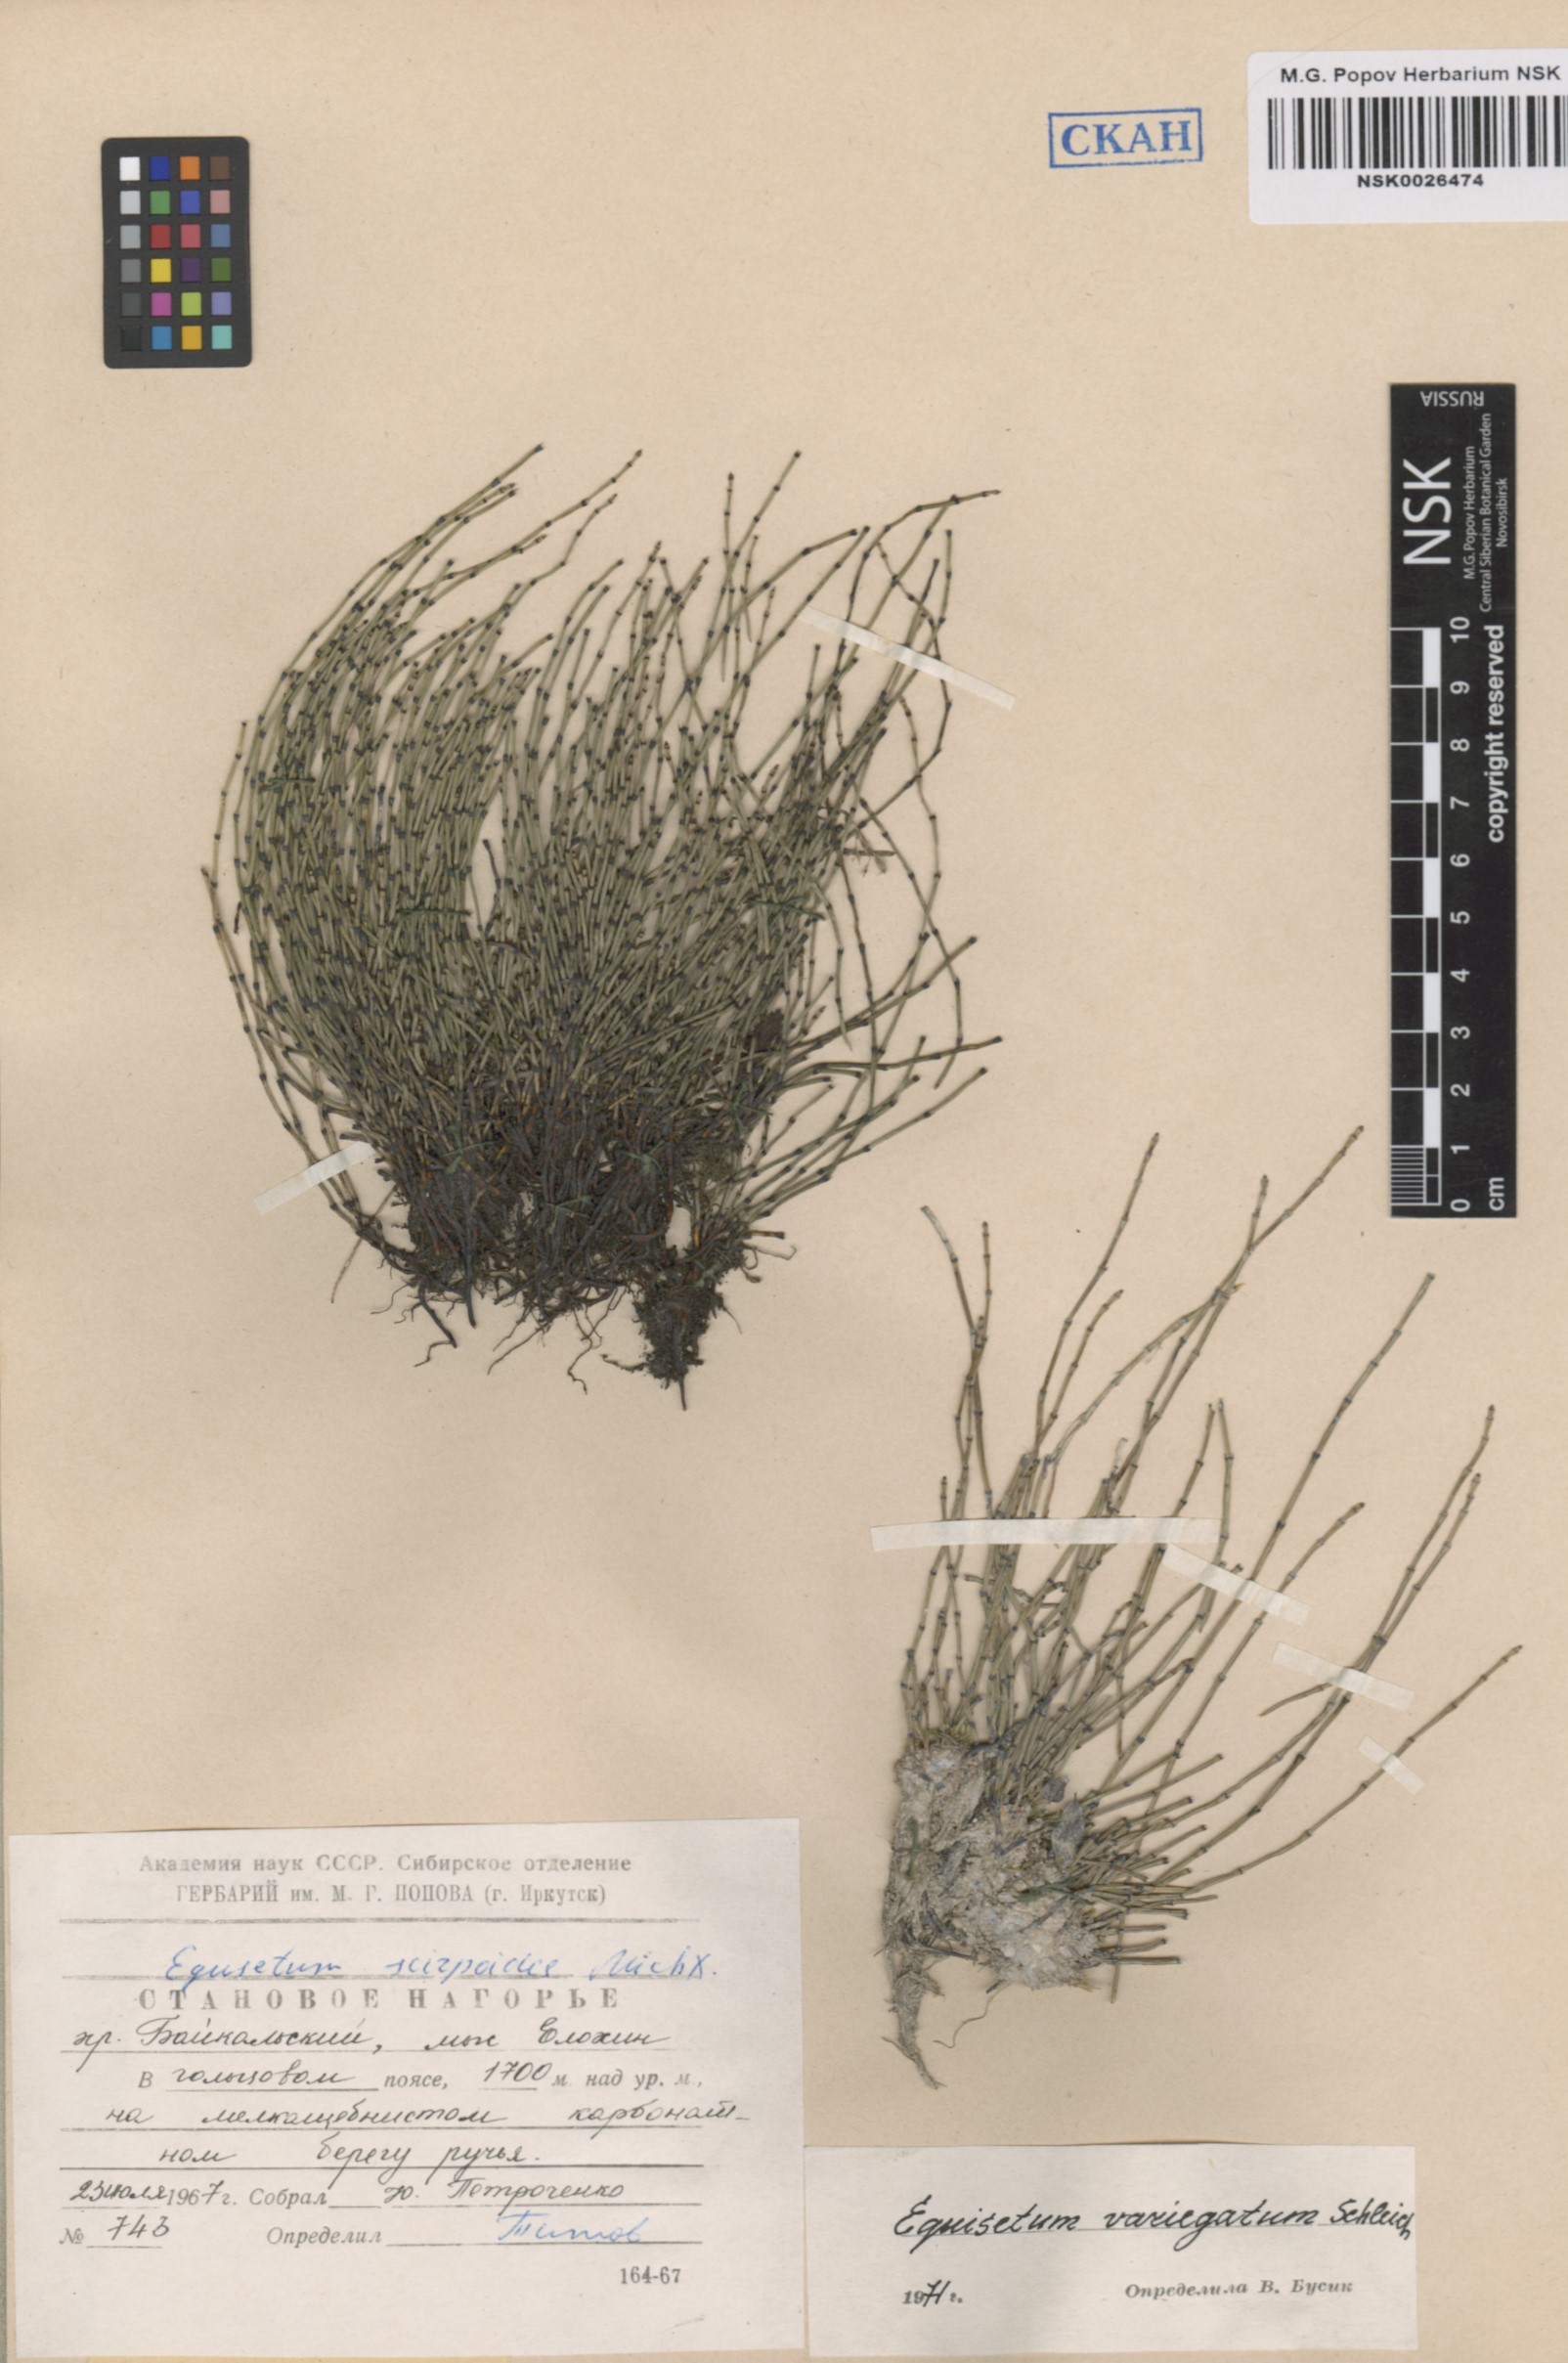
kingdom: Plantae
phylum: Tracheophyta
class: Polypodiopsida
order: Equisetales
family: Equisetaceae
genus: Equisetum
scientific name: Equisetum variegatum
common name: Variegated horsetail
